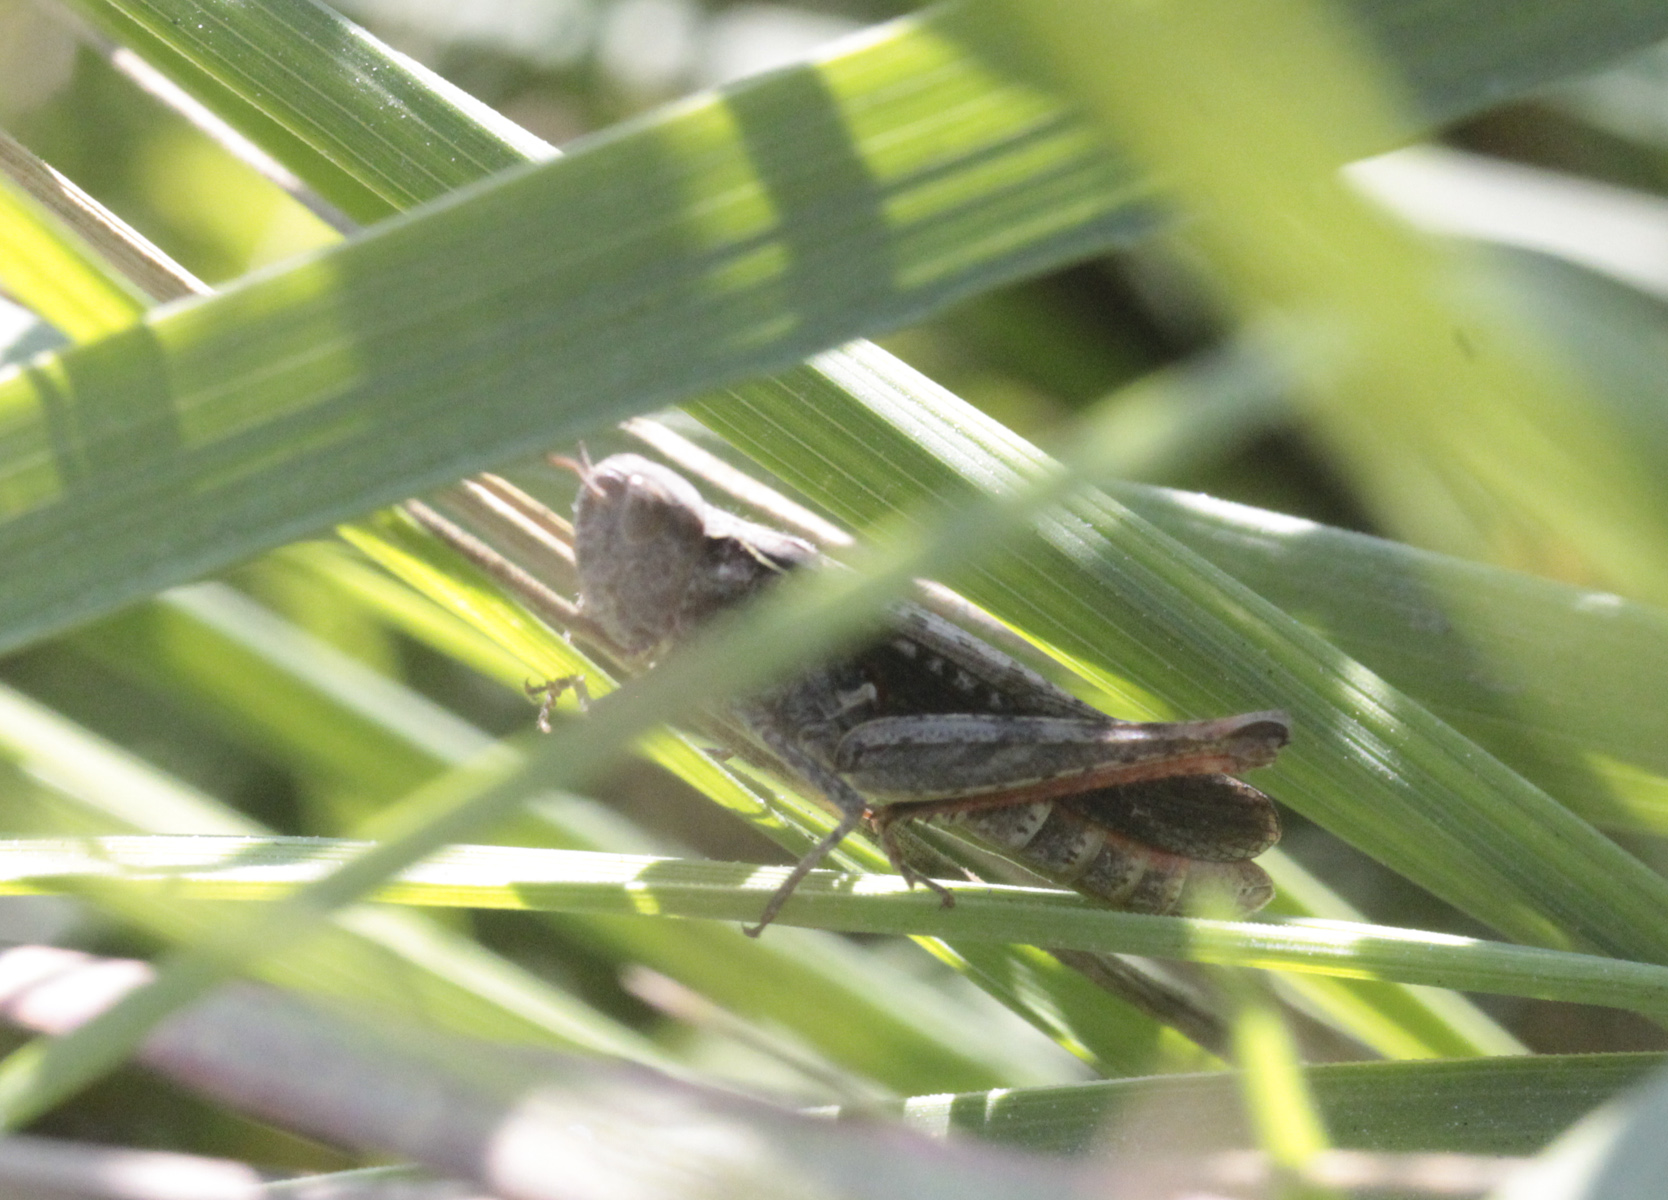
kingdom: Animalia
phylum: Arthropoda
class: Insecta
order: Orthoptera
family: Tettigoniidae
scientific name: Tettigoniidae
